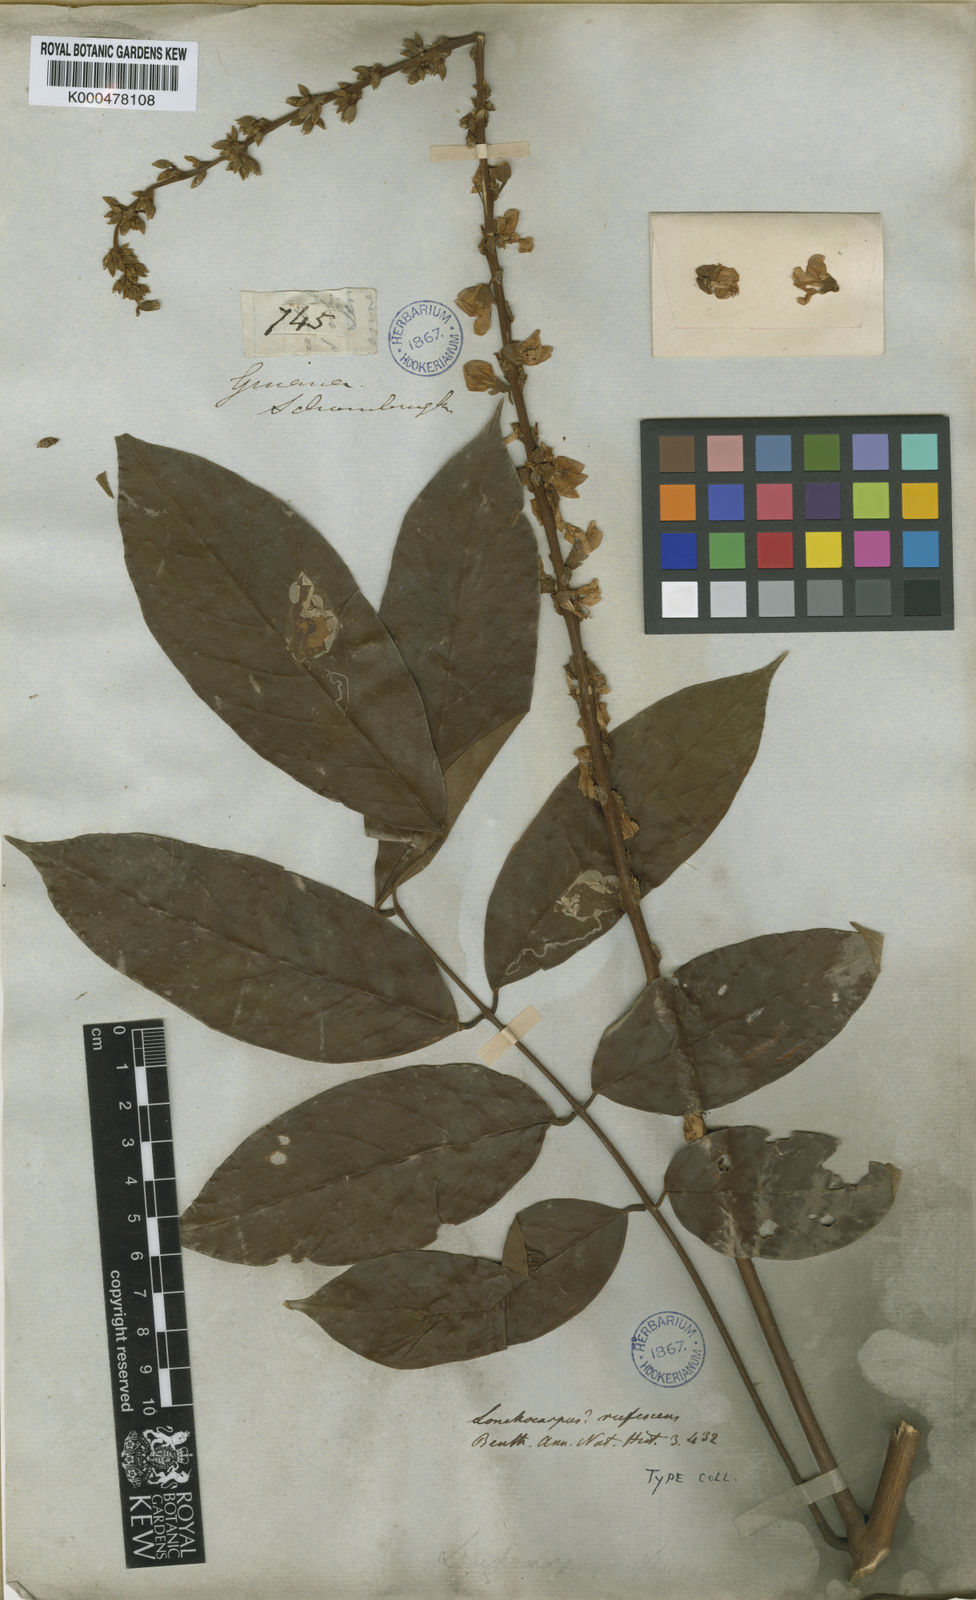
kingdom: Plantae
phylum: Tracheophyta
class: Magnoliopsida
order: Fabales
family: Fabaceae
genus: Deguelia
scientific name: Deguelia rufescens
